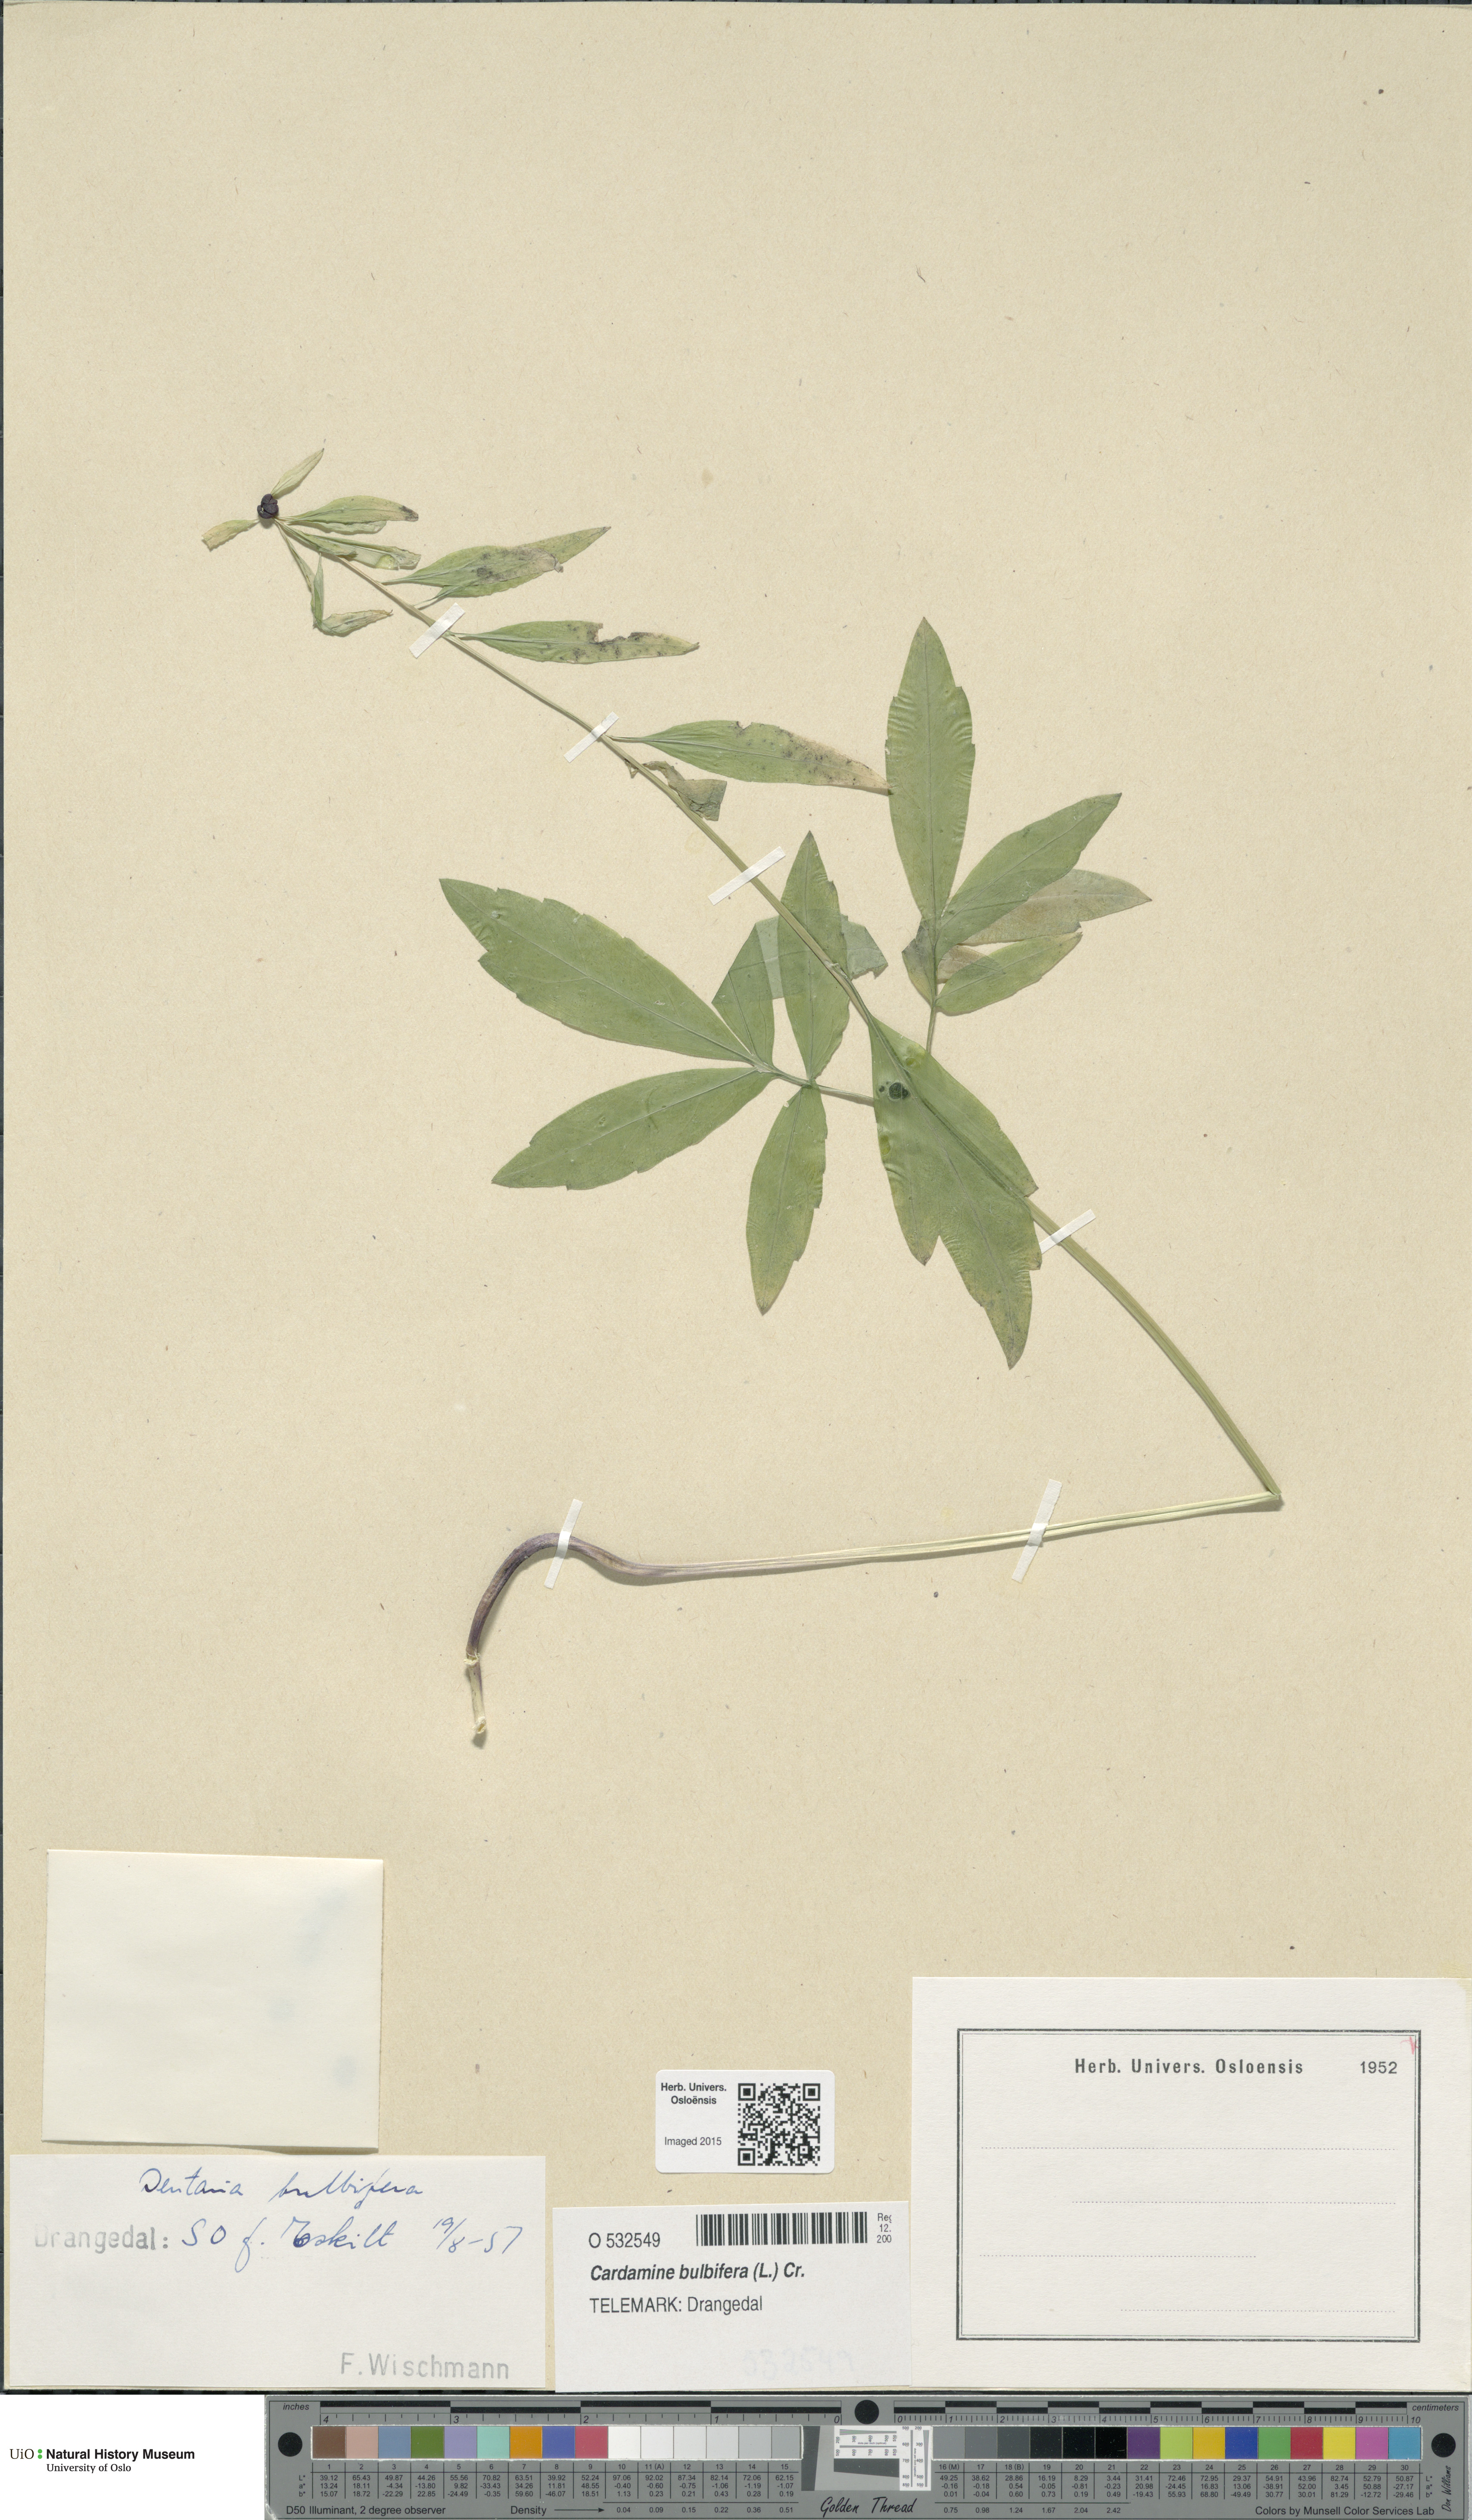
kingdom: Plantae
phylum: Tracheophyta
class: Magnoliopsida
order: Brassicales
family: Brassicaceae
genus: Cardamine
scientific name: Cardamine bulbifera
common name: Coralroot bittercress
